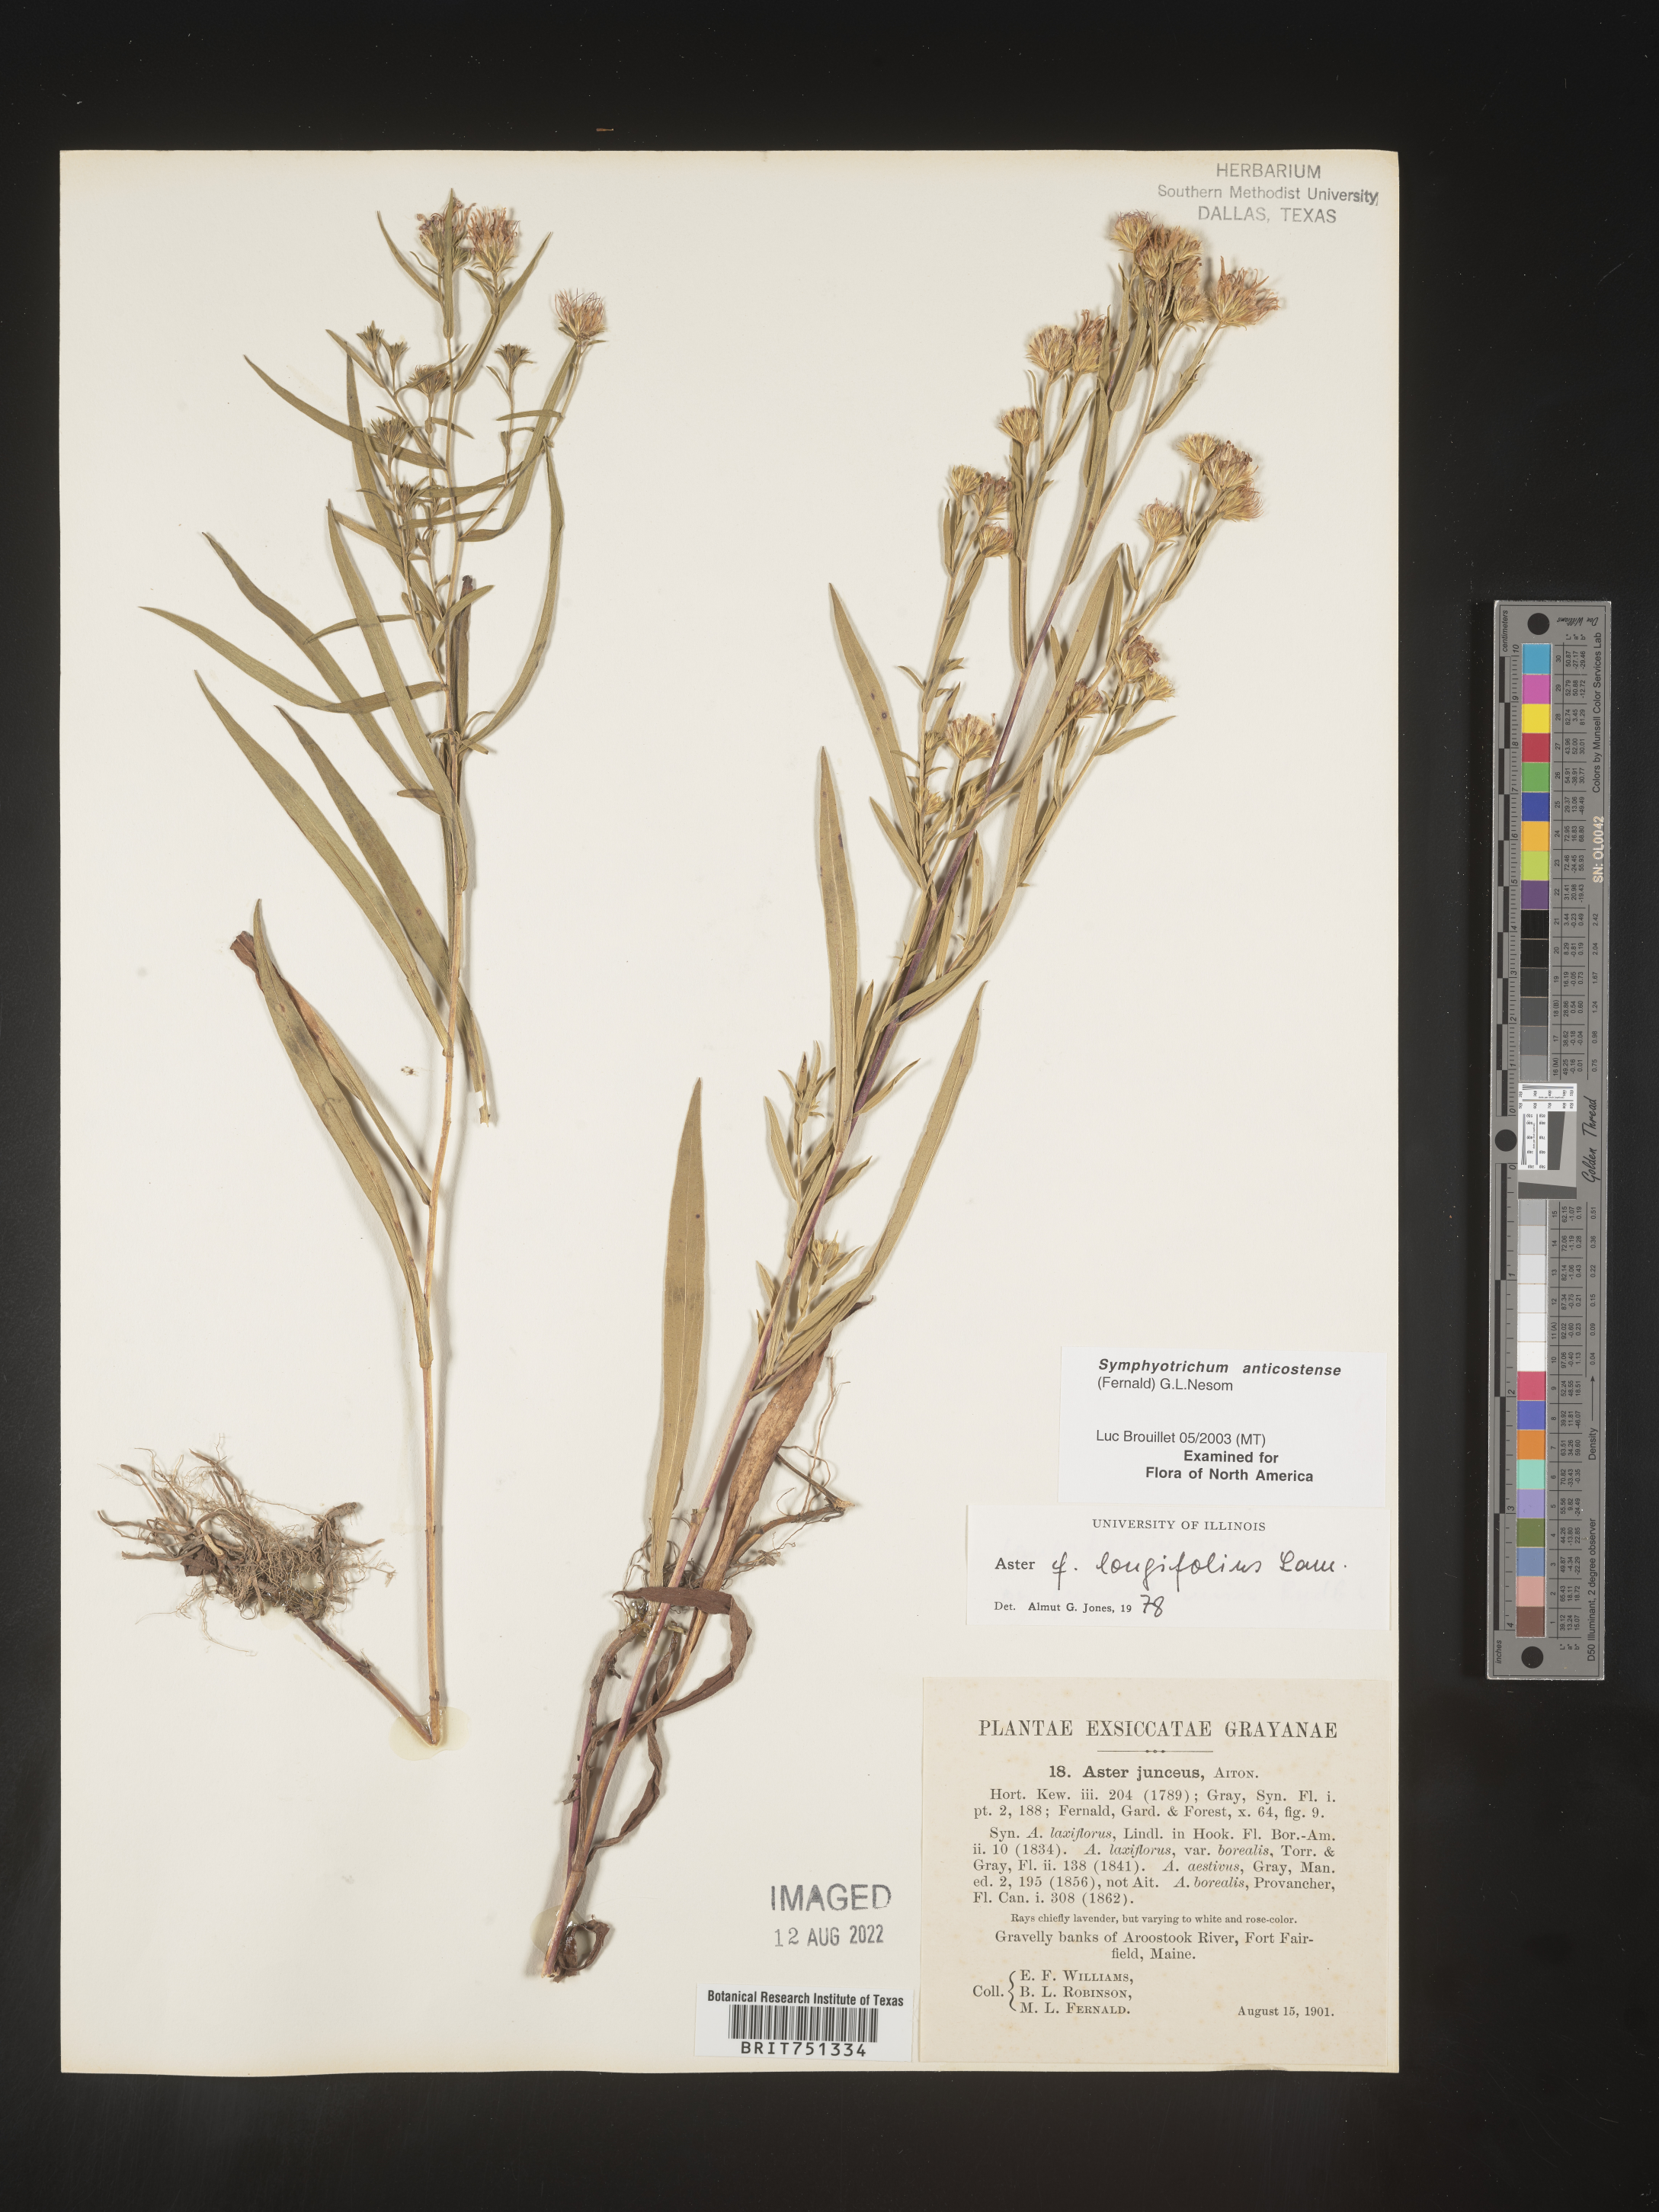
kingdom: Plantae
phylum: Tracheophyta
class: Magnoliopsida
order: Asterales
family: Asteraceae
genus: Symphyotrichum
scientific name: Symphyotrichum anticostense
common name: Anticosti island aster
